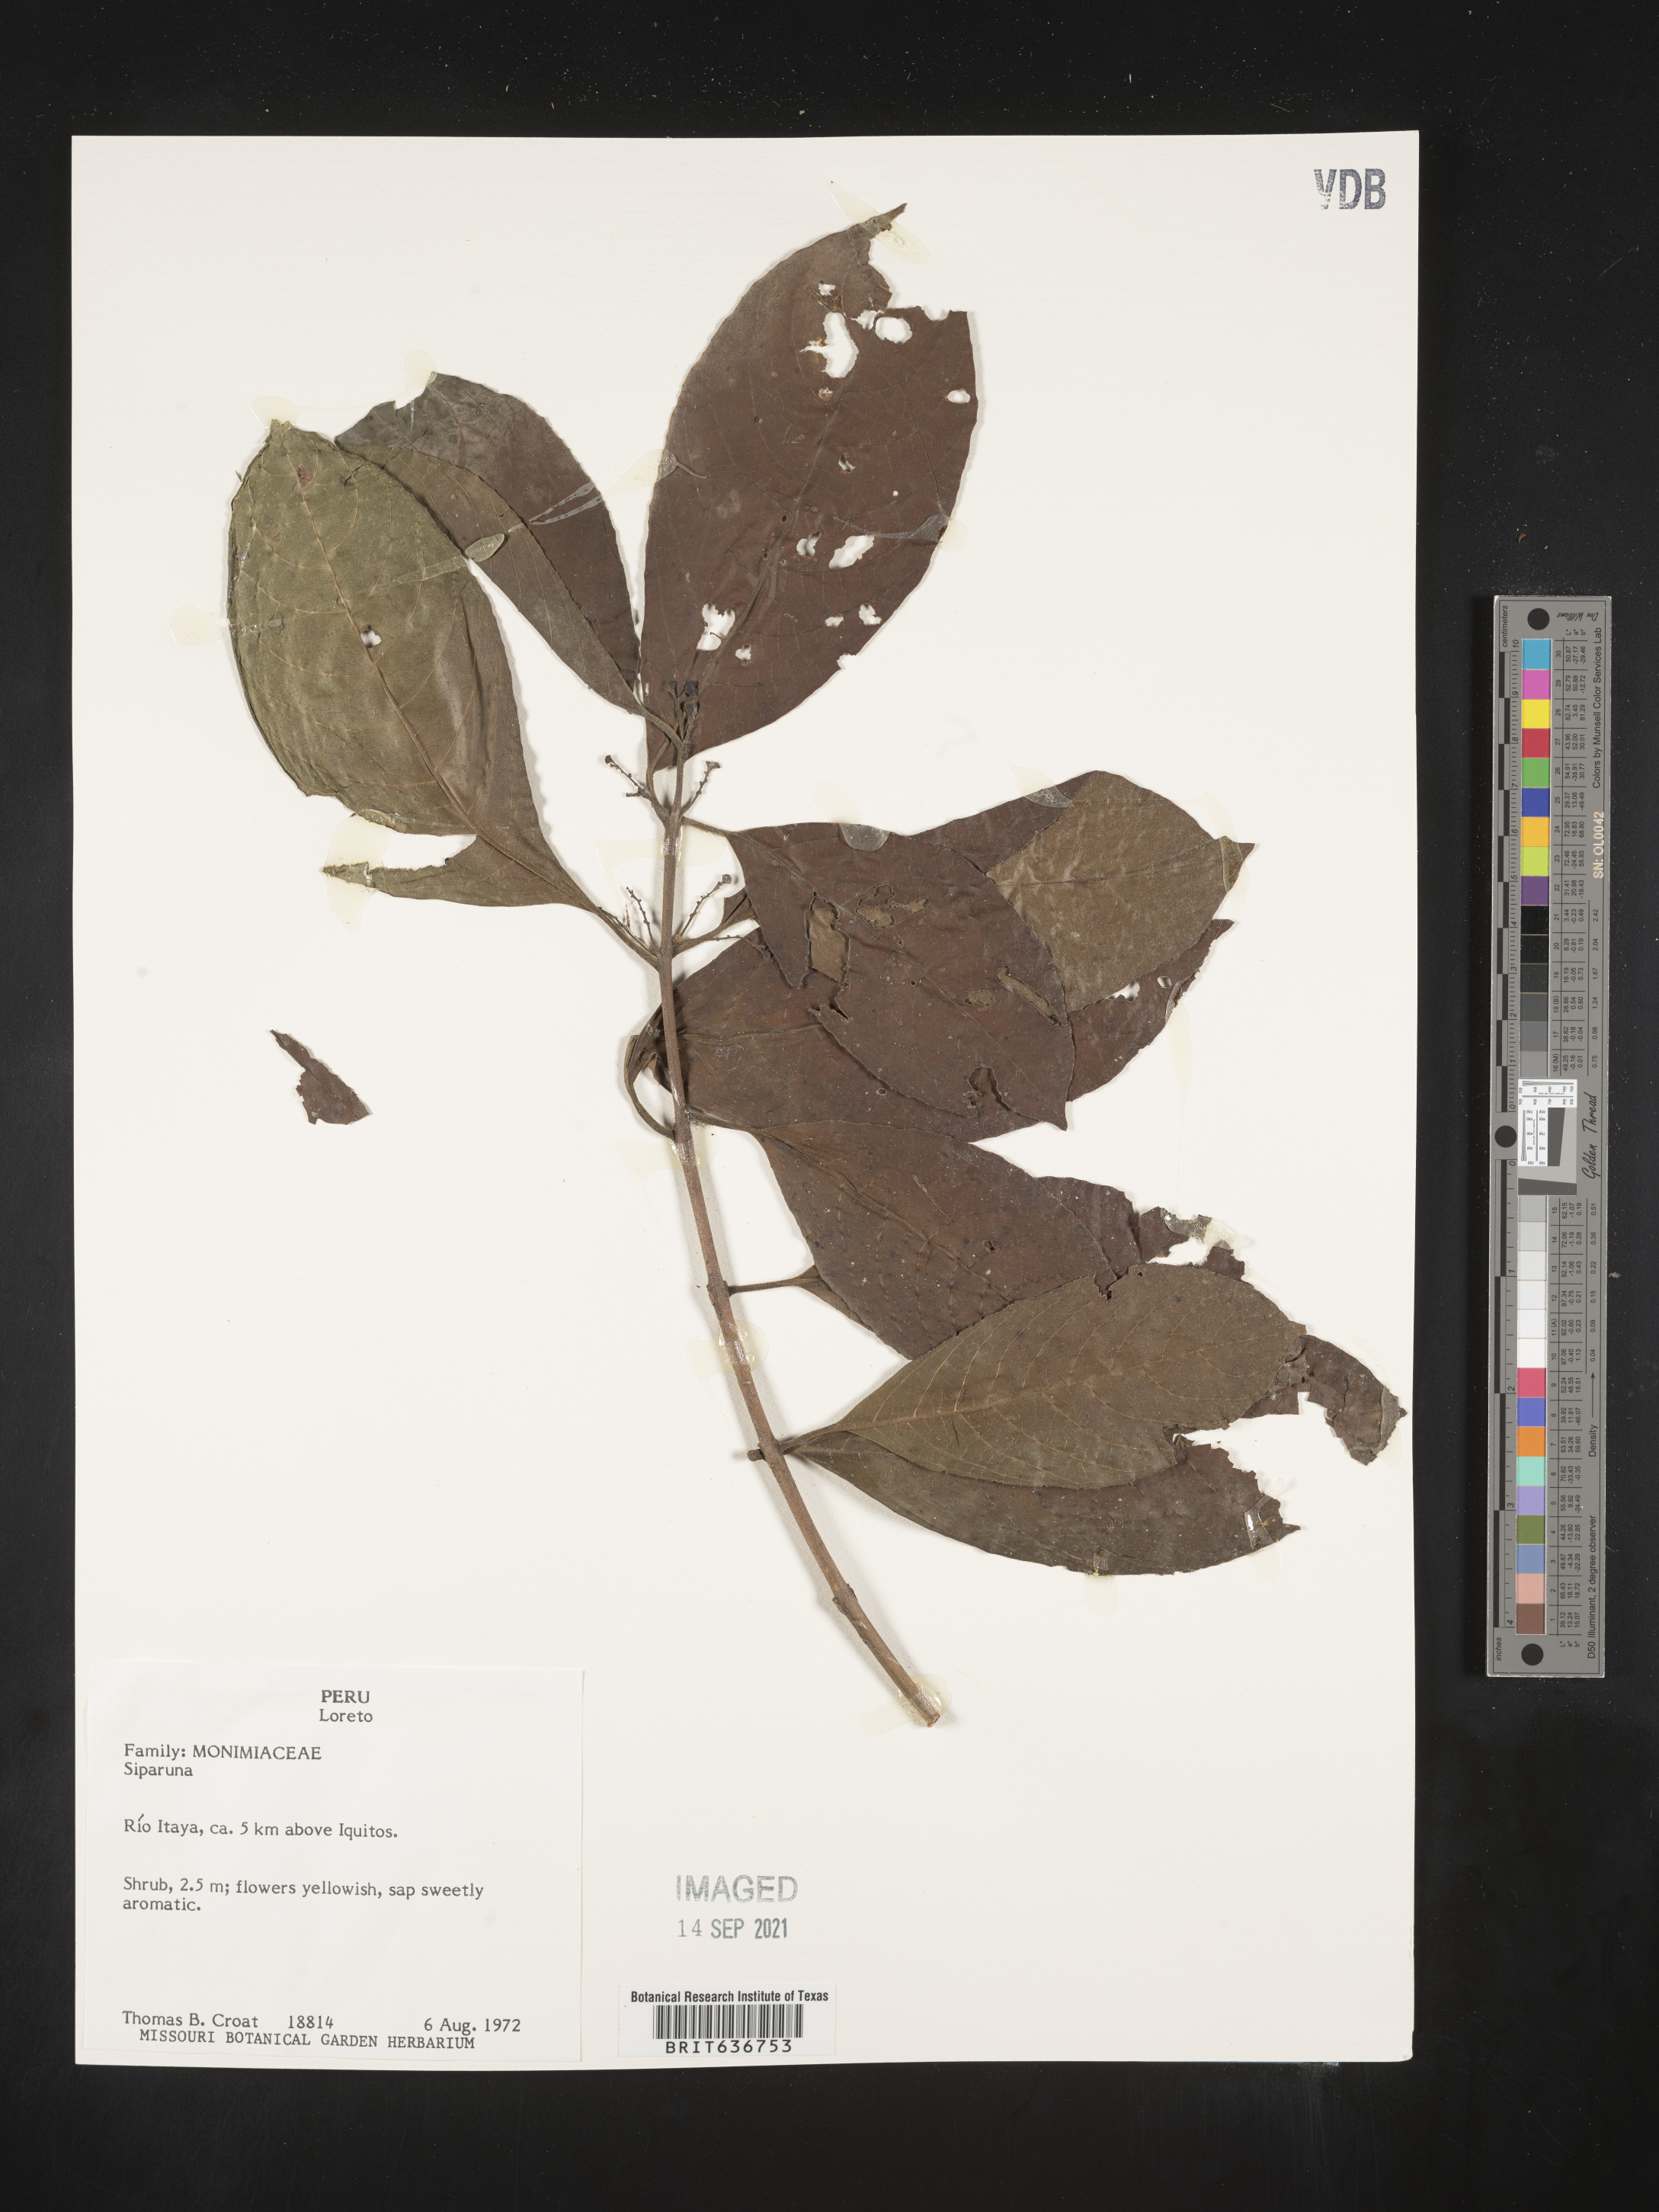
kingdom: Plantae
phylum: Tracheophyta
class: Magnoliopsida
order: Laurales
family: Siparunaceae
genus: Siparuna
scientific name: Siparuna
